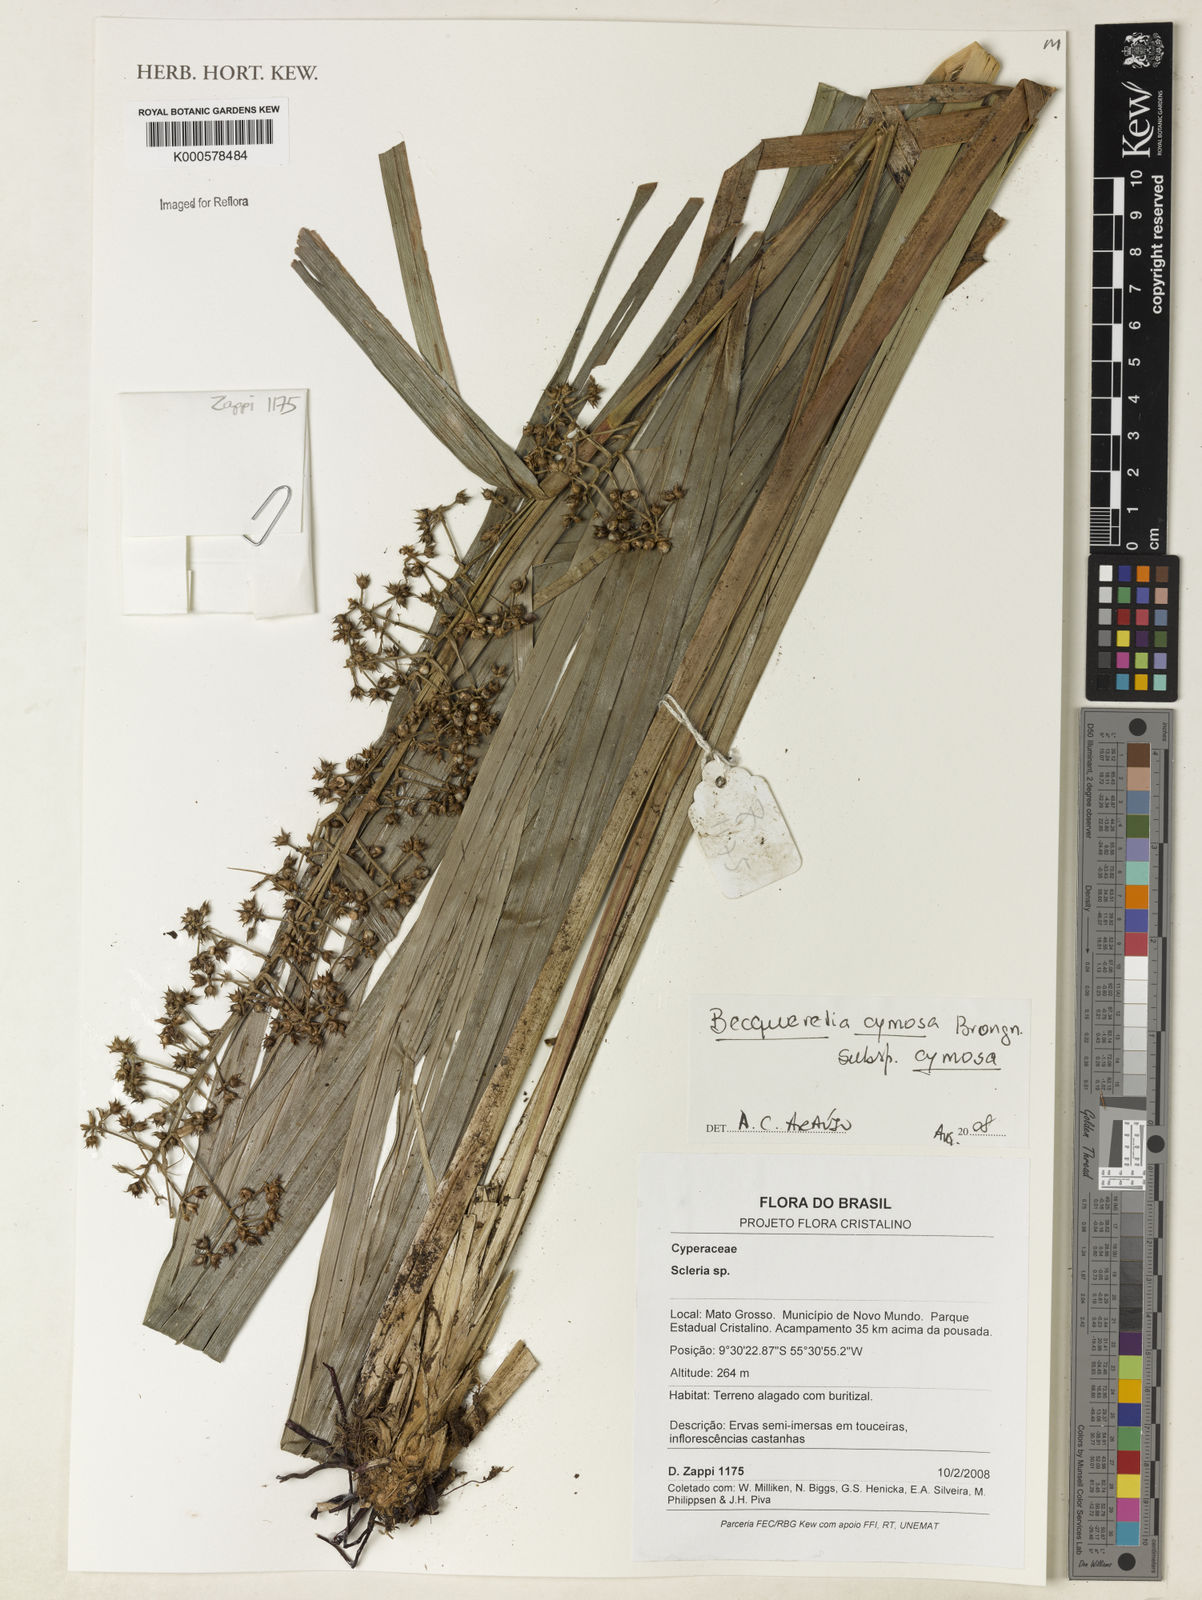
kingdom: Plantae
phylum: Tracheophyta
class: Liliopsida
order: Poales
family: Cyperaceae
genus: Becquerelia
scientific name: Becquerelia cymosa
